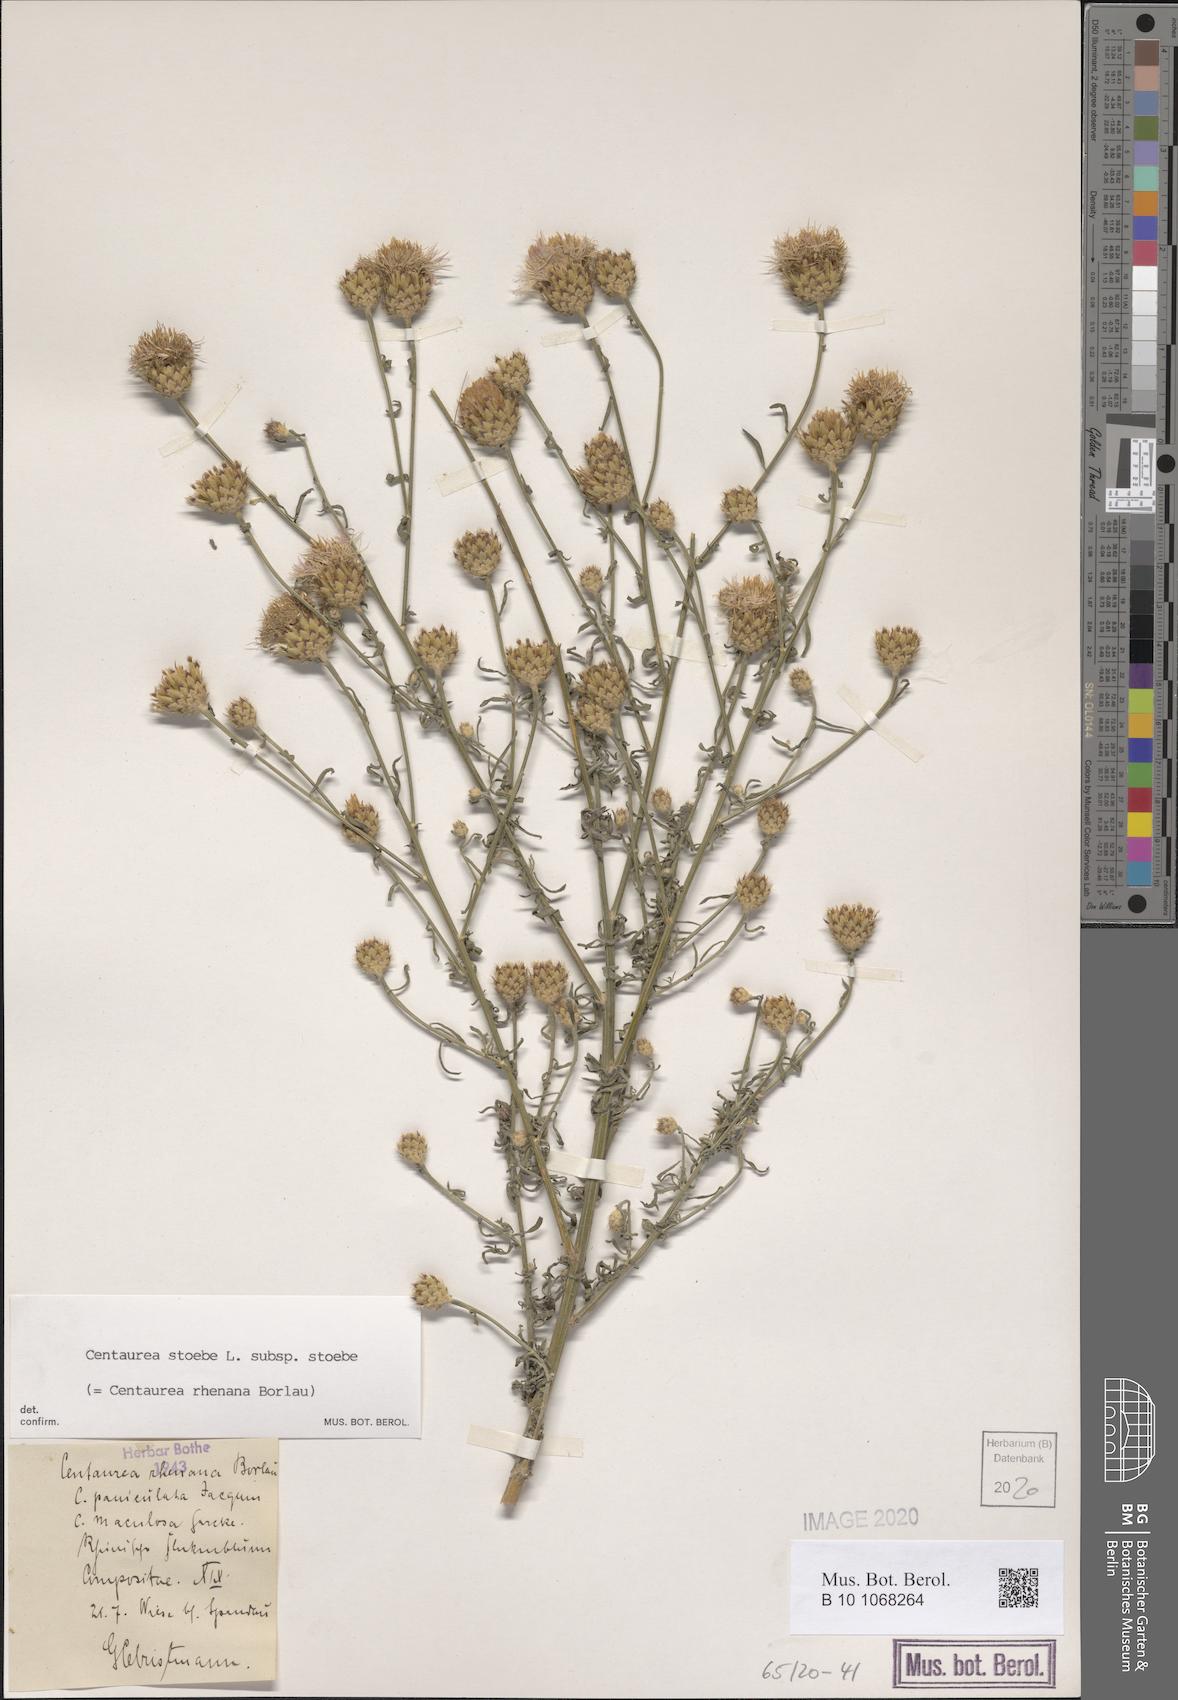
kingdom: Plantae
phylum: Tracheophyta
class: Magnoliopsida
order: Asterales
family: Asteraceae
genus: Centaurea
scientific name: Centaurea stoebe
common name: Spotted knapweed
